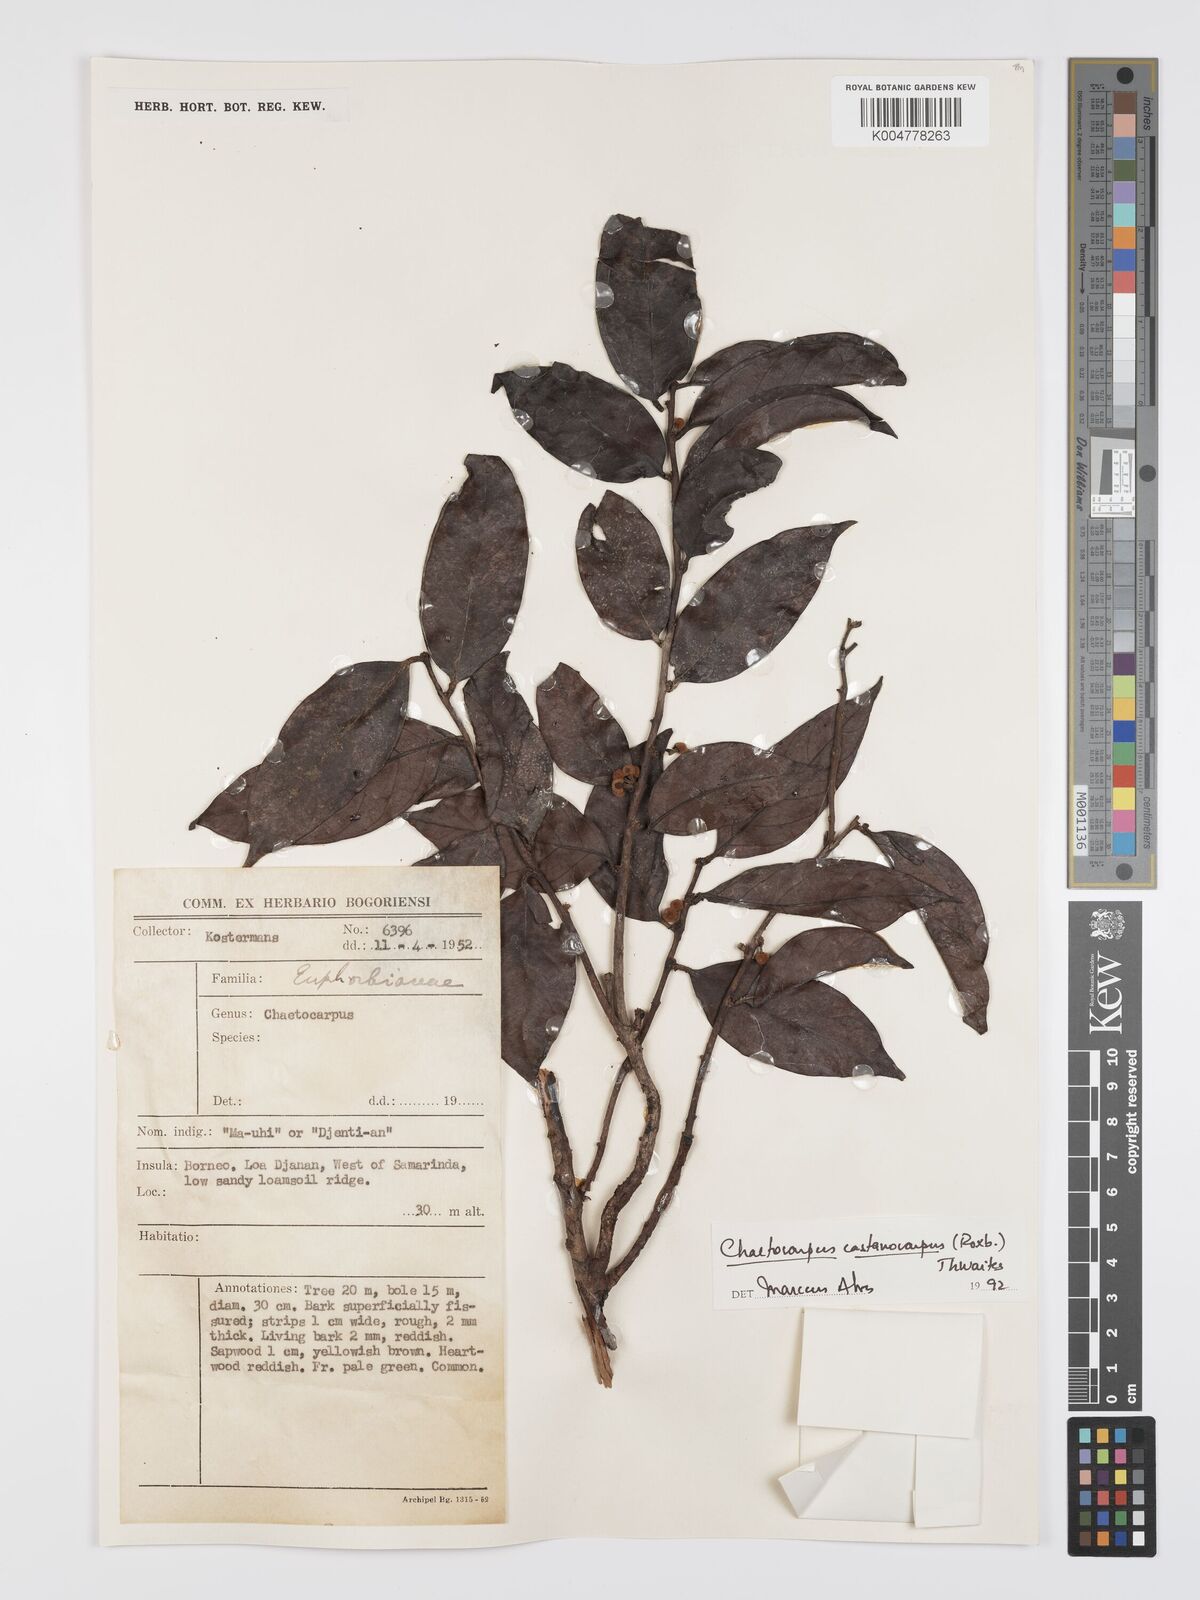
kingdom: Plantae
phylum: Tracheophyta
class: Magnoliopsida
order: Malpighiales
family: Peraceae
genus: Chaetocarpus
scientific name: Chaetocarpus castanocarpus
